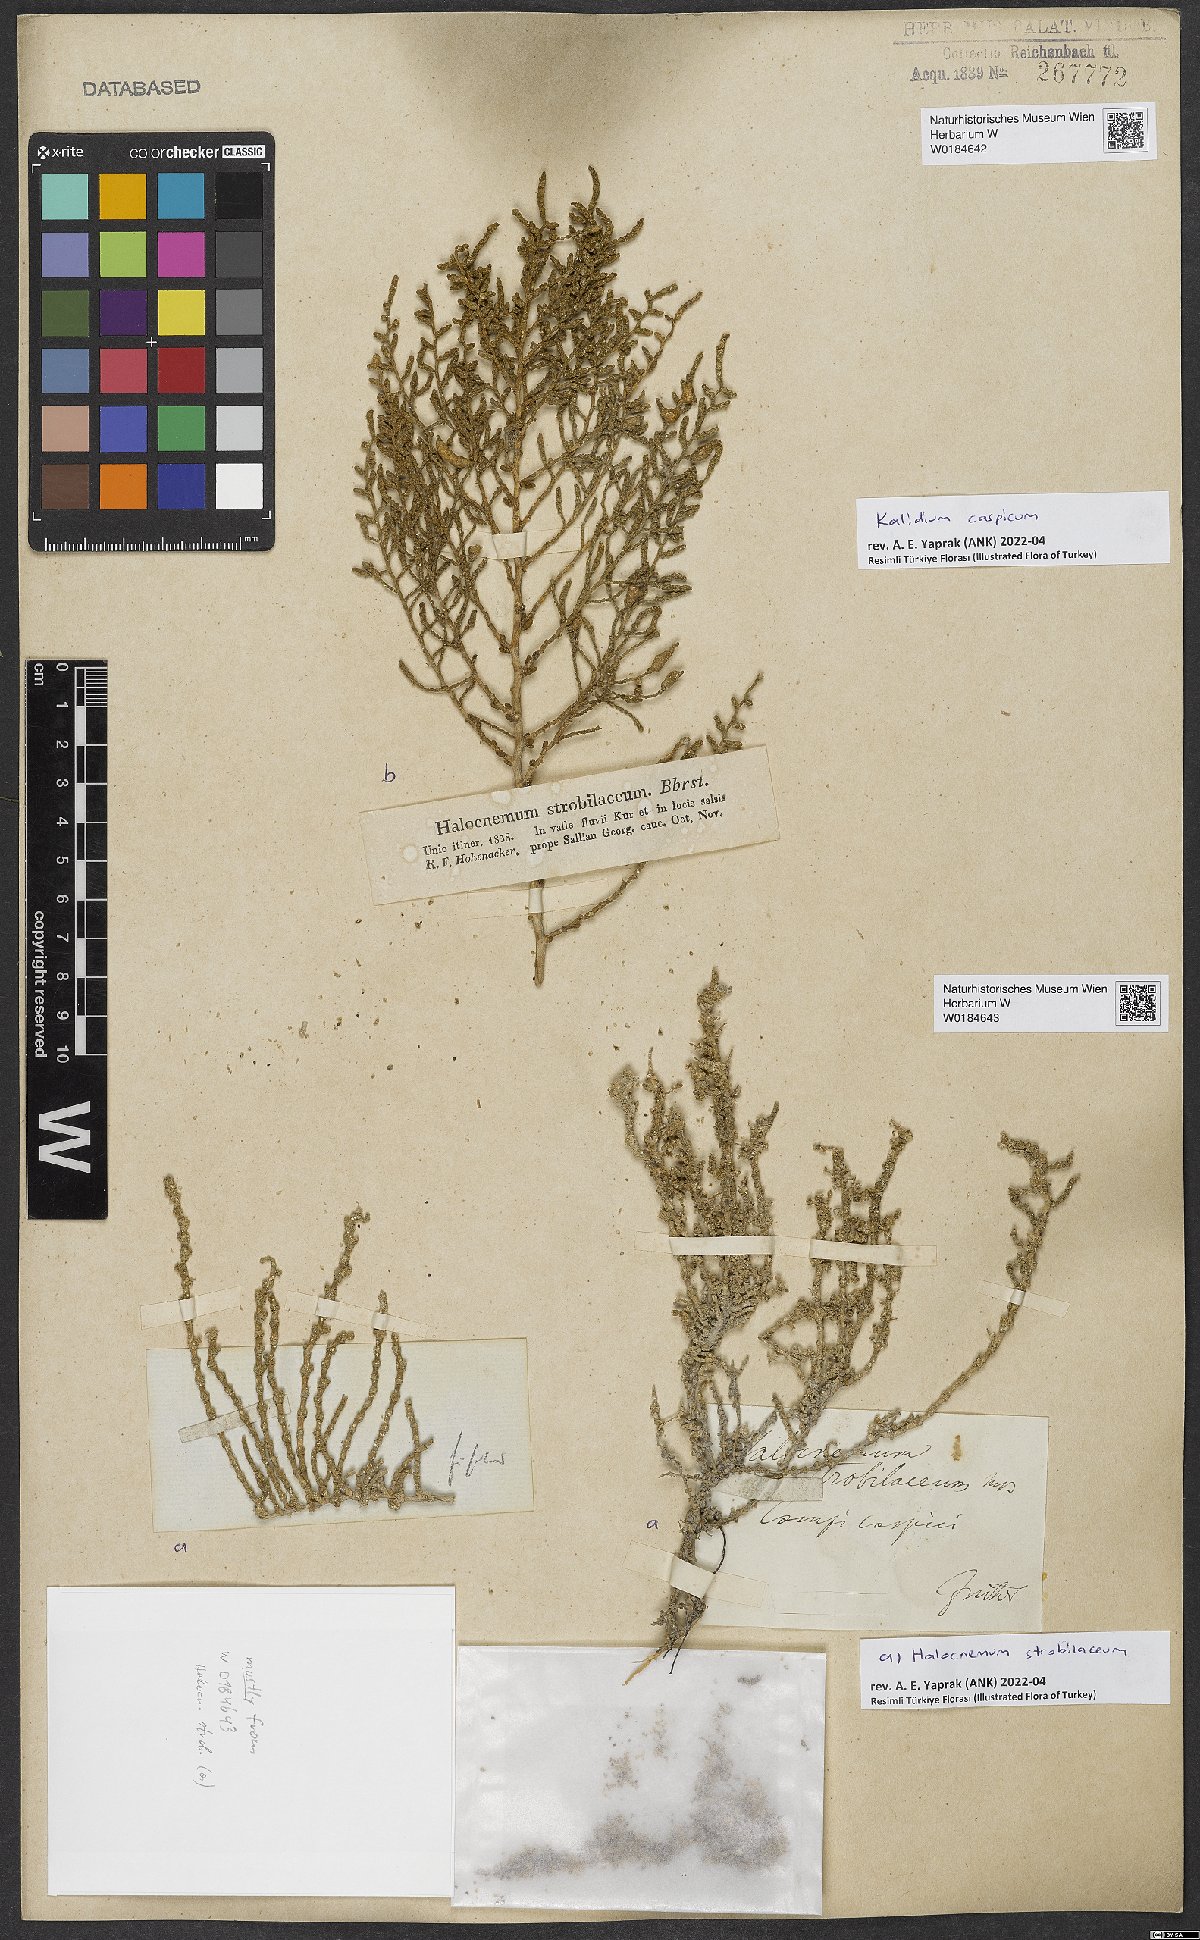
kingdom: Plantae
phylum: Tracheophyta
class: Magnoliopsida
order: Caryophyllales
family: Amaranthaceae
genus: Kalidium
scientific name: Kalidium caspicum
